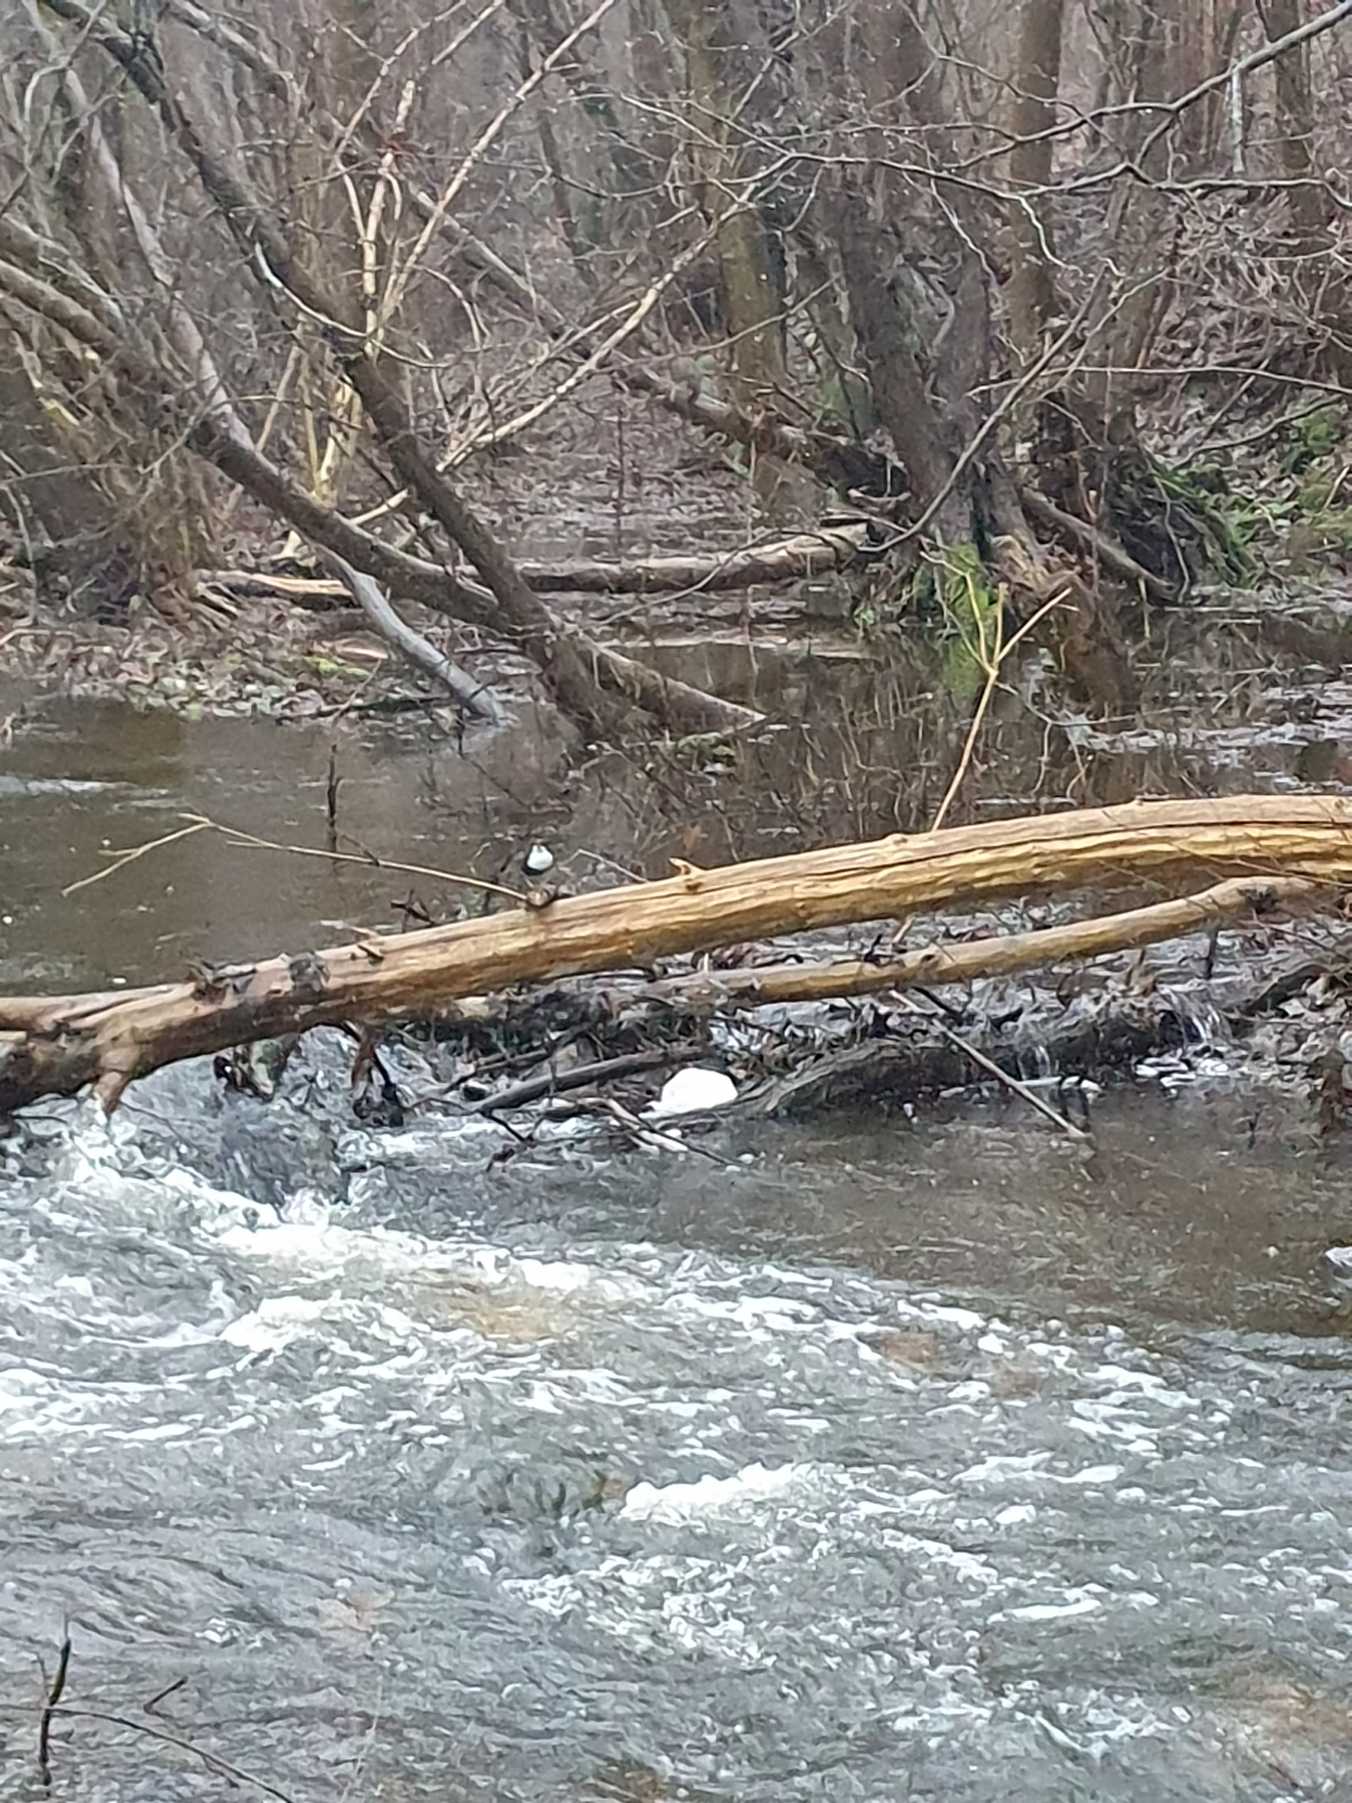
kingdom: Animalia
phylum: Chordata
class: Aves
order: Passeriformes
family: Cinclidae
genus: Cinclus
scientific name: Cinclus cinclus
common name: Vandstær
